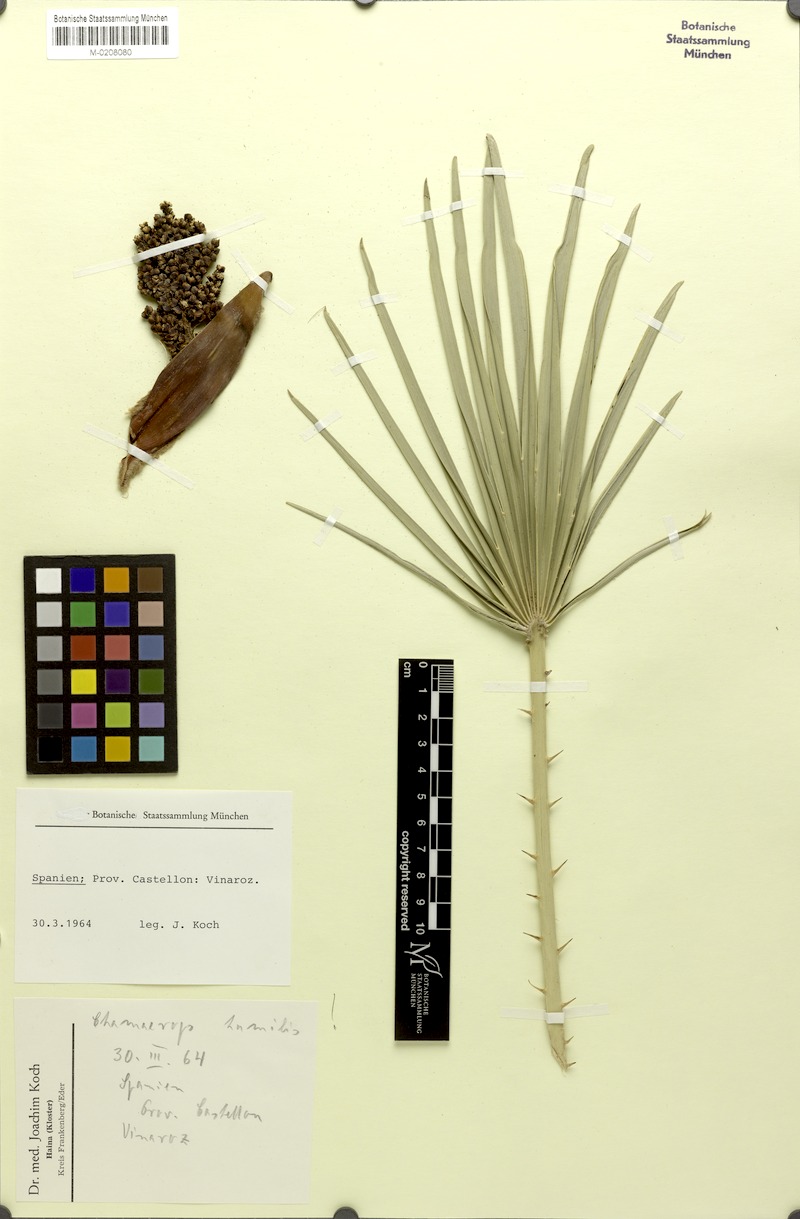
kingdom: Plantae
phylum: Tracheophyta
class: Liliopsida
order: Arecales
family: Arecaceae
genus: Chamaerops
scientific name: Chamaerops humilis
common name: Dwarf fan palm
